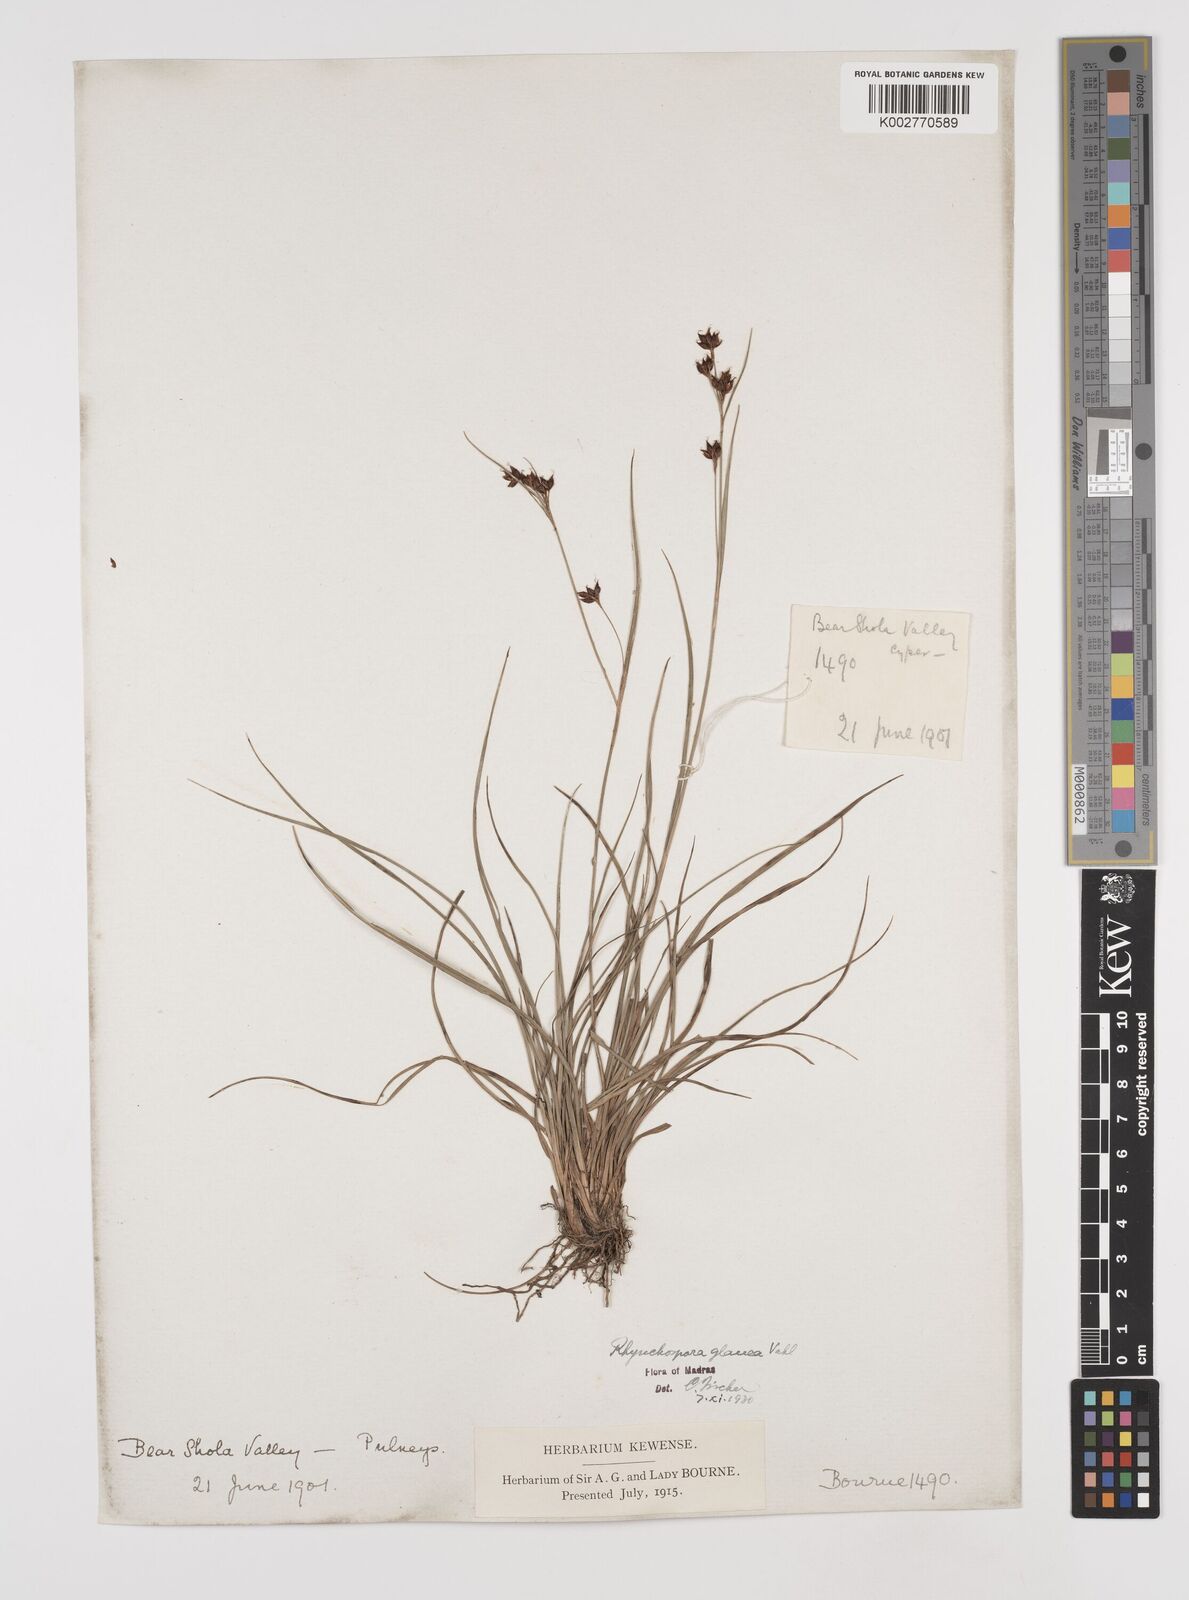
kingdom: Plantae
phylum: Tracheophyta
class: Liliopsida
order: Poales
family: Cyperaceae
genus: Rhynchospora
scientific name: Rhynchospora rugosa
